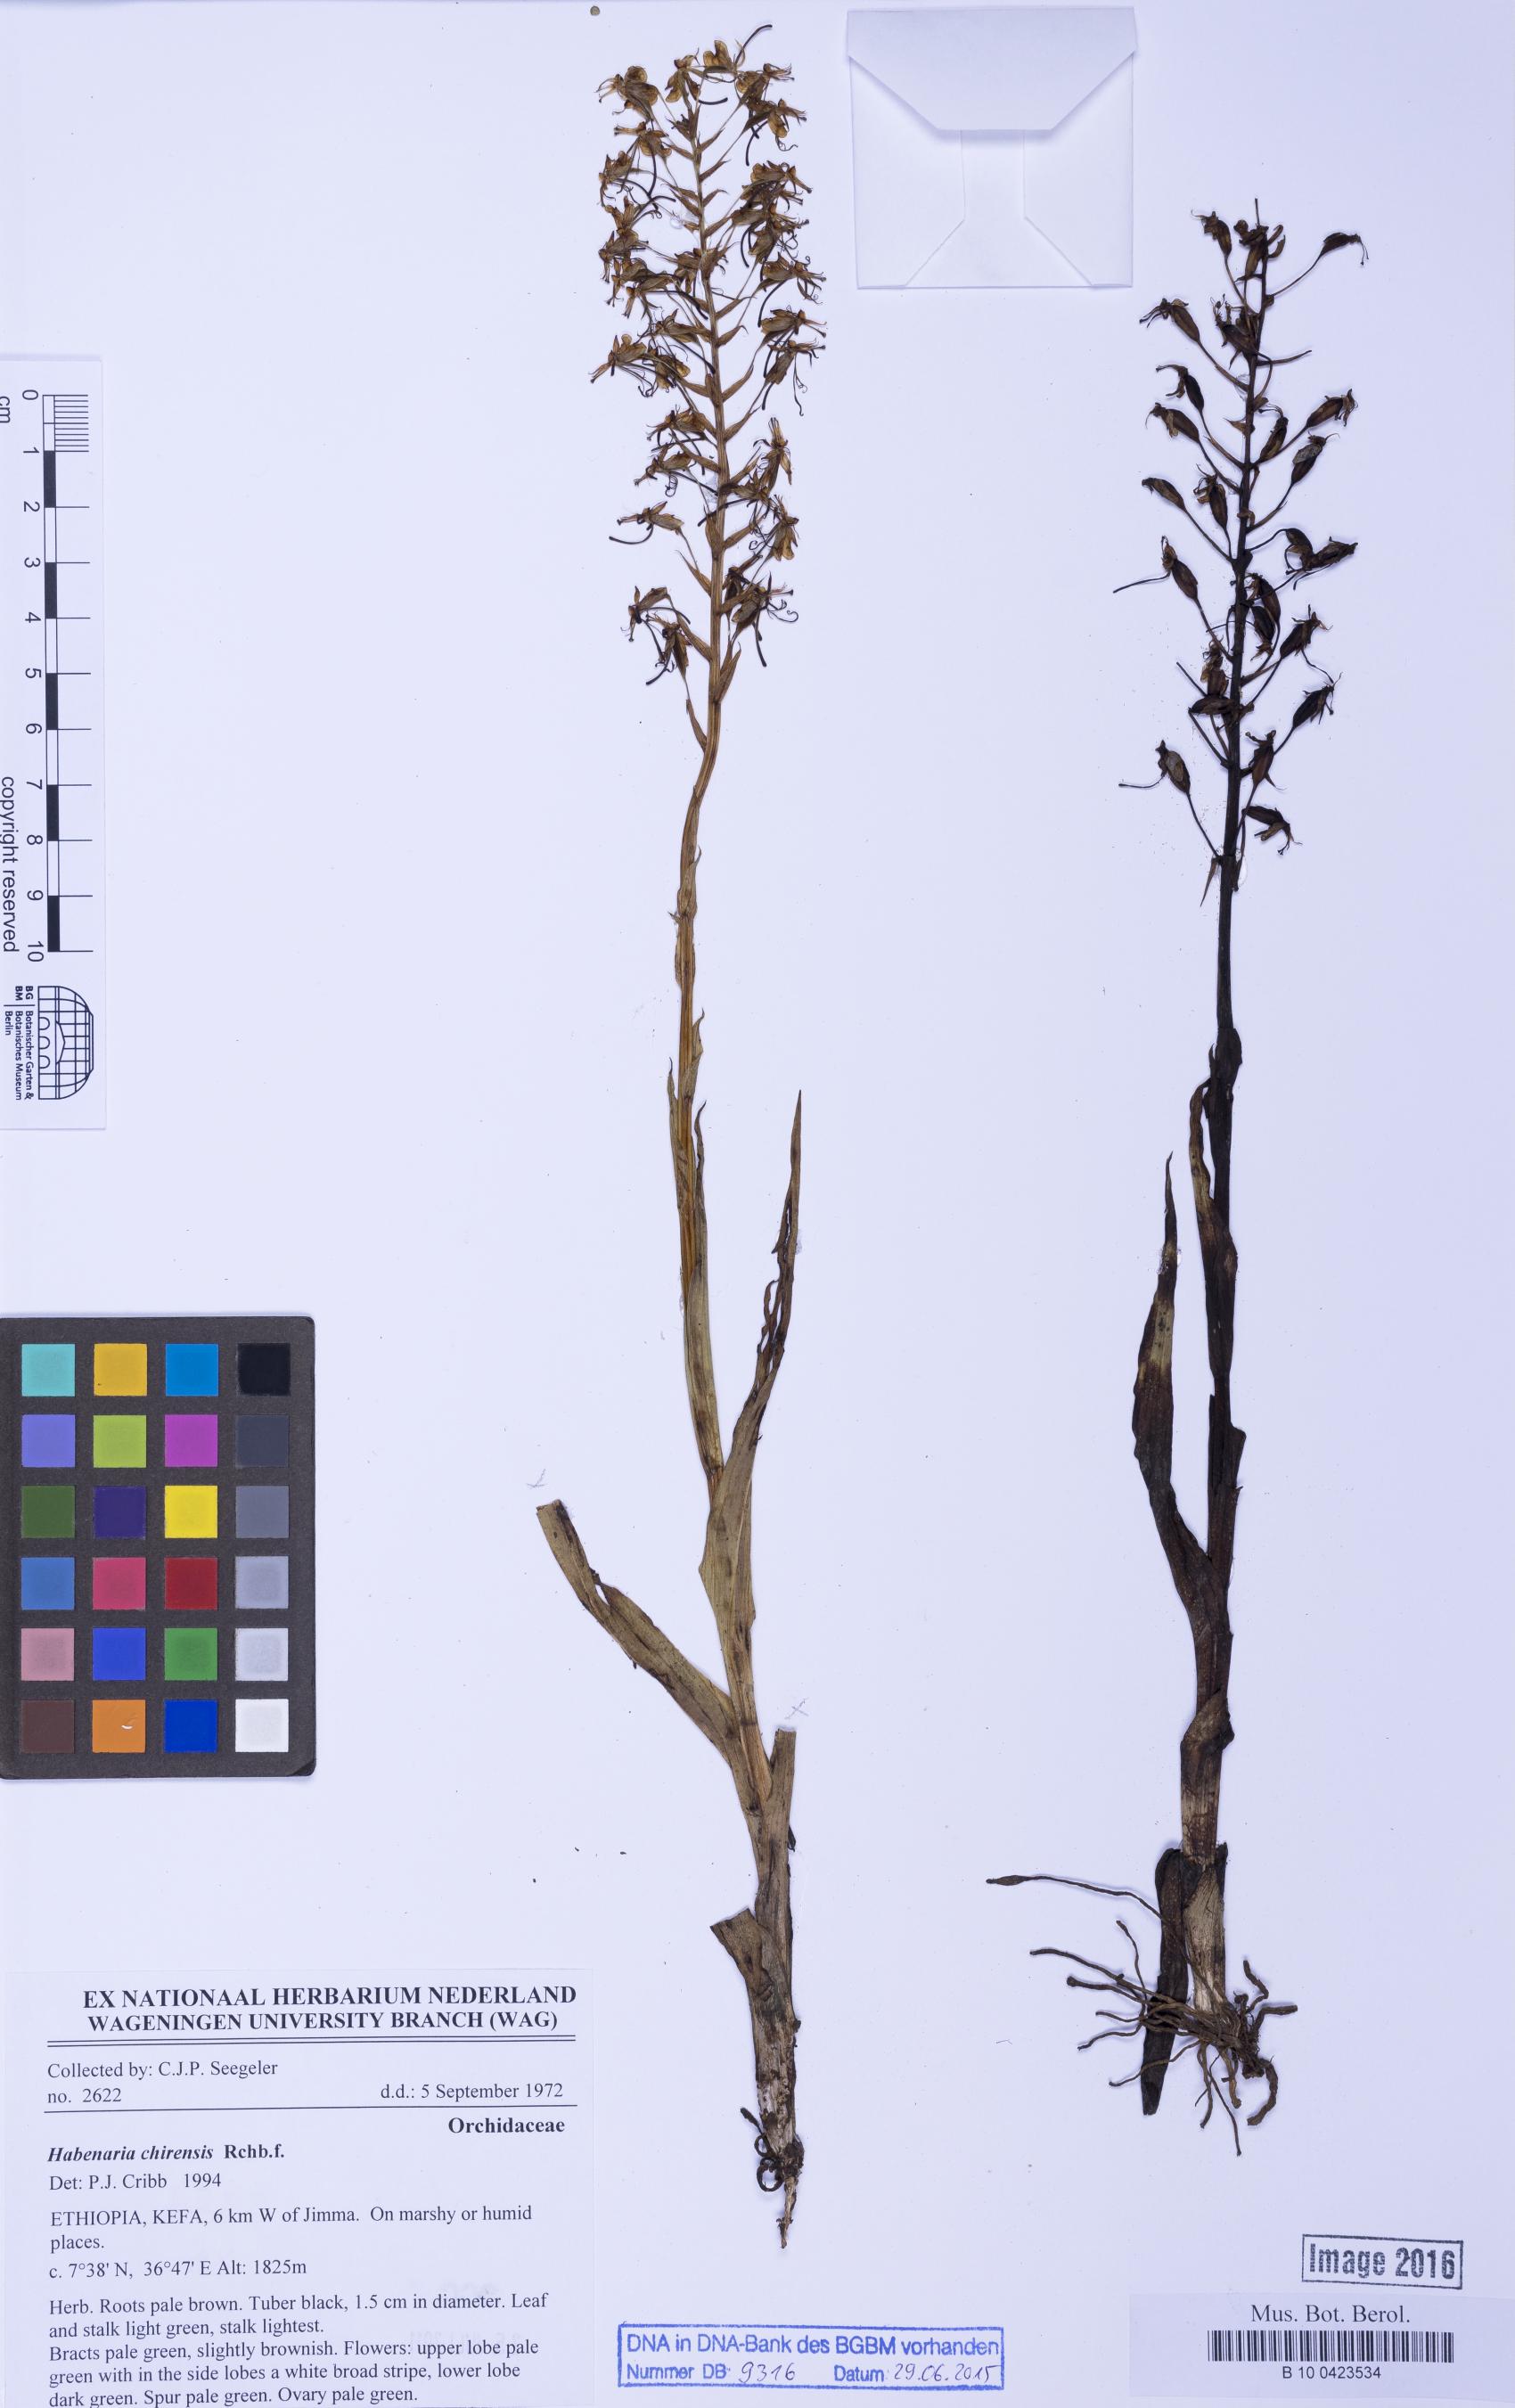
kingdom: Plantae
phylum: Tracheophyta
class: Liliopsida
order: Asparagales
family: Orchidaceae
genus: Habenaria
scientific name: Habenaria chirensis
